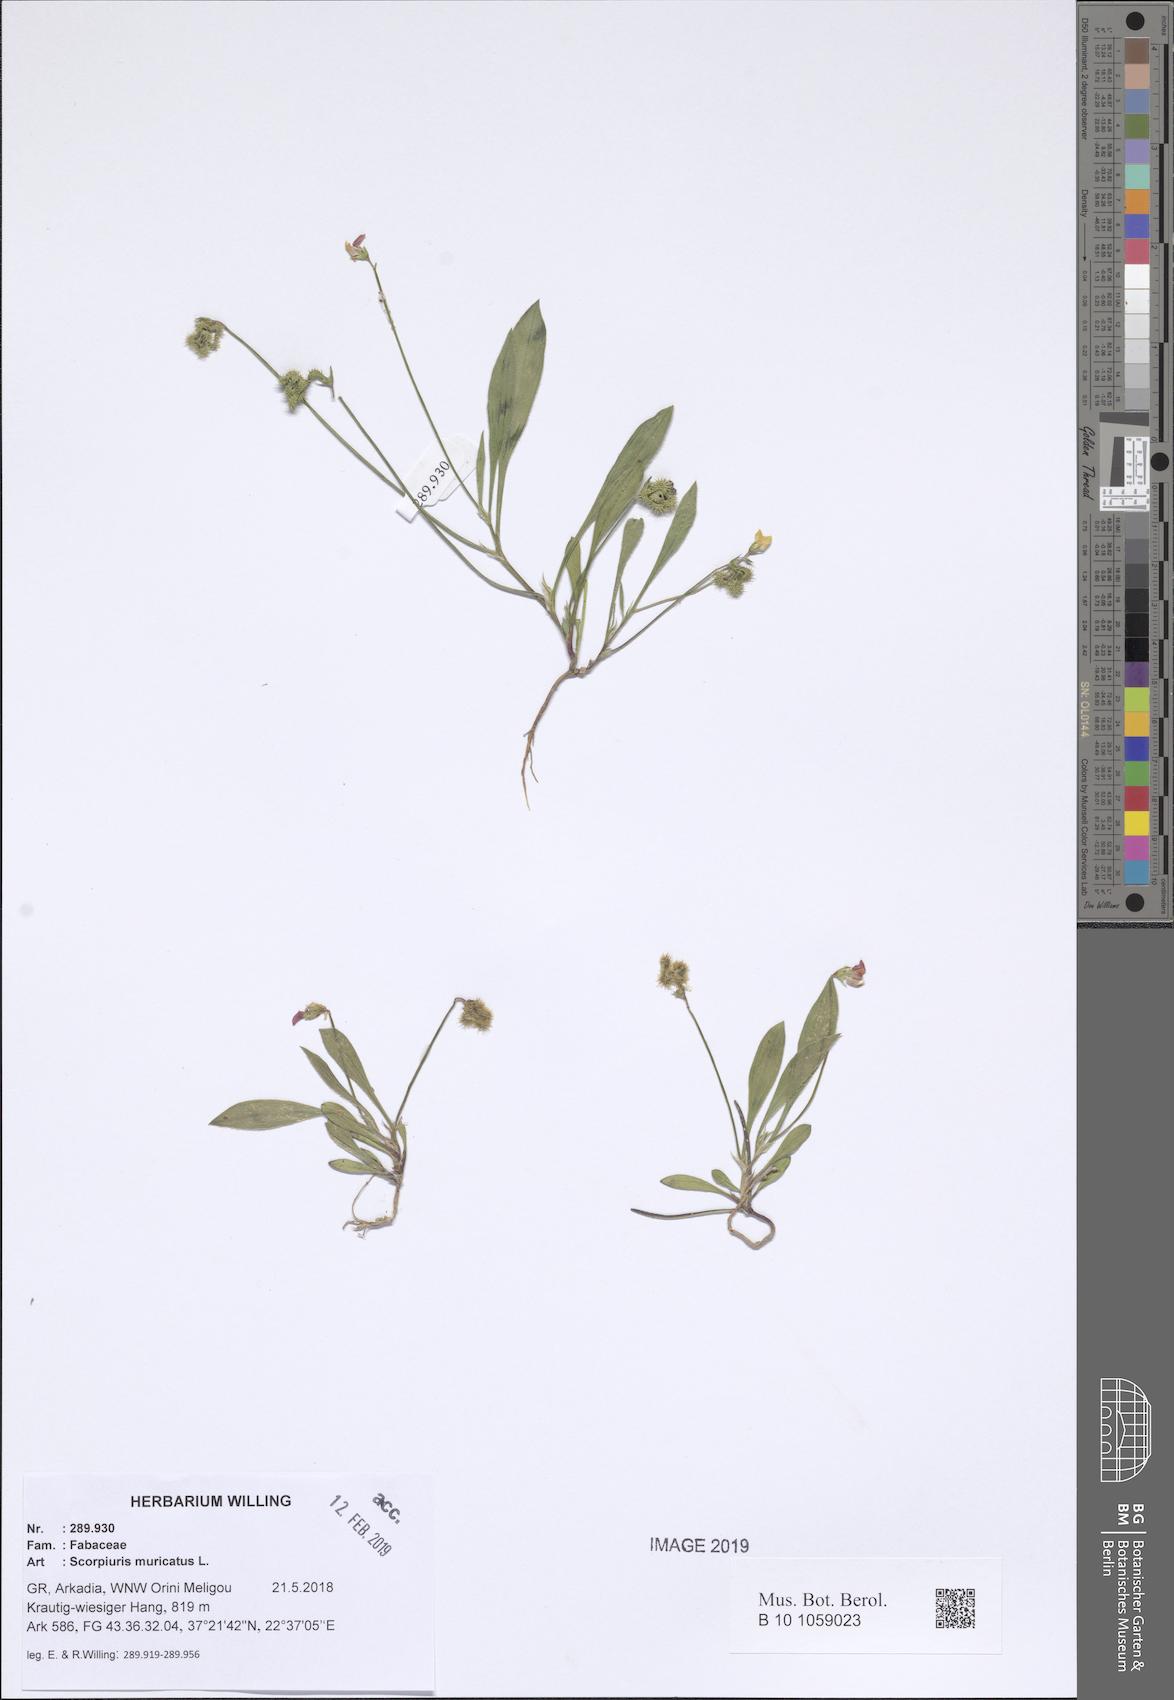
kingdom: Plantae
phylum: Tracheophyta
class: Magnoliopsida
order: Fabales
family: Fabaceae
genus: Scorpiurus
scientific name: Scorpiurus muricatus
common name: Caterpillar-plant
